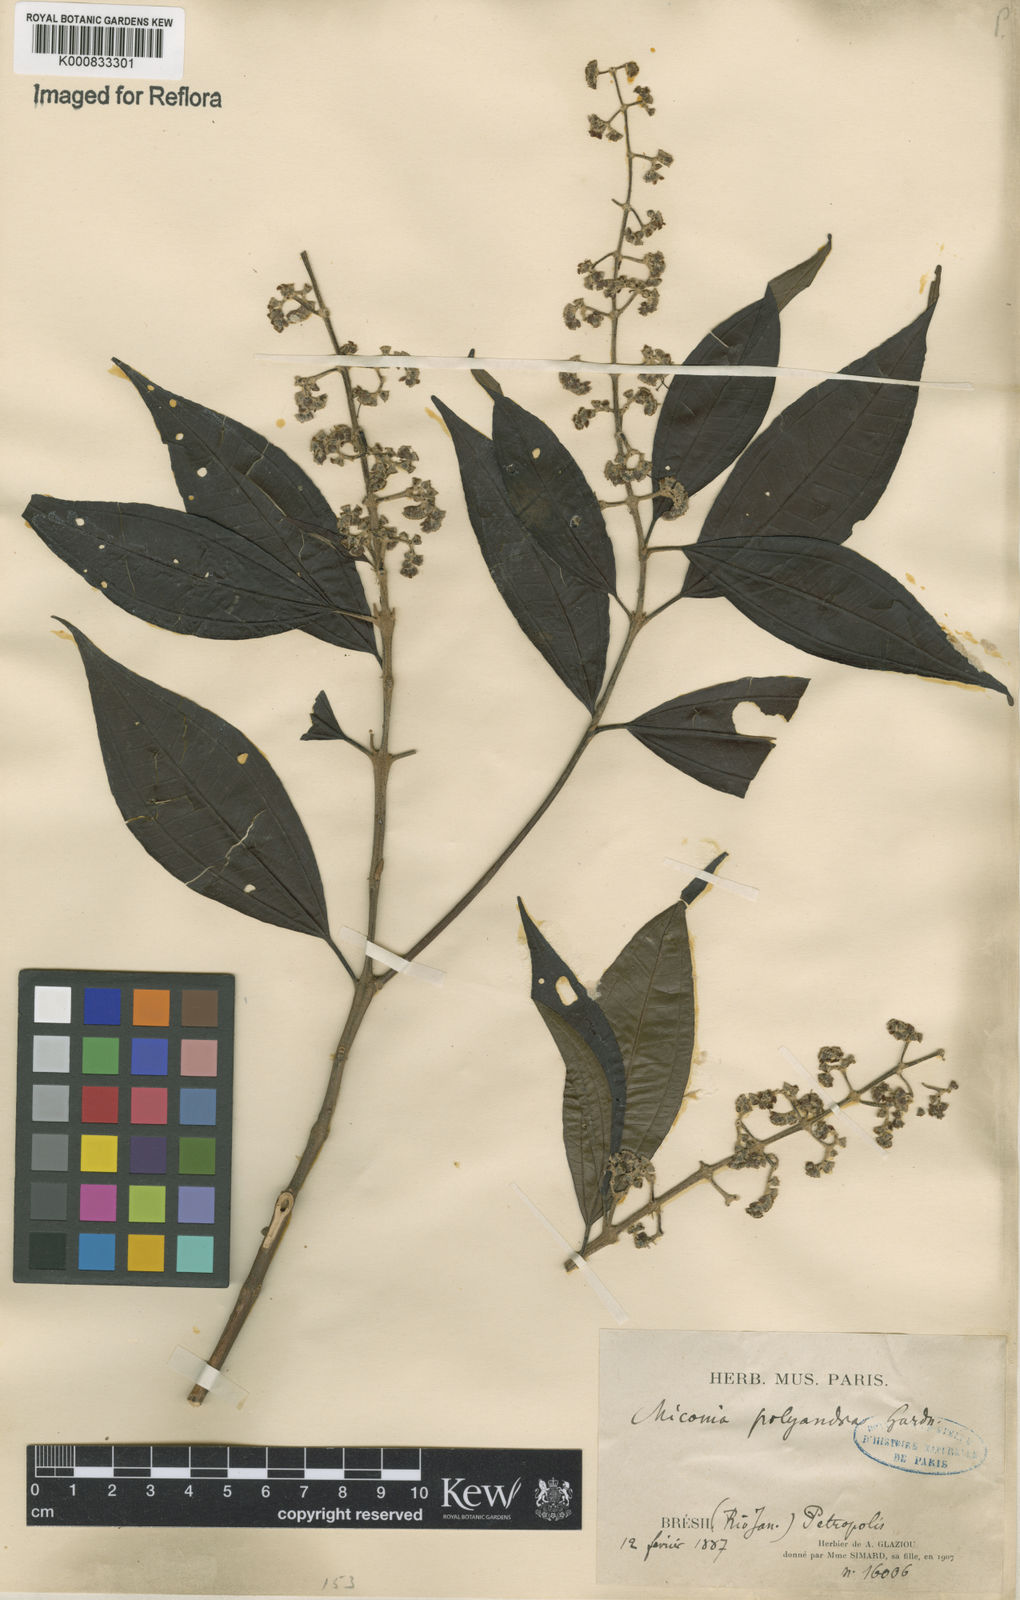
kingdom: Plantae
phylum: Tracheophyta
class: Magnoliopsida
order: Myrtales
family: Melastomataceae
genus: Miconia
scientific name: Miconia polyandra
